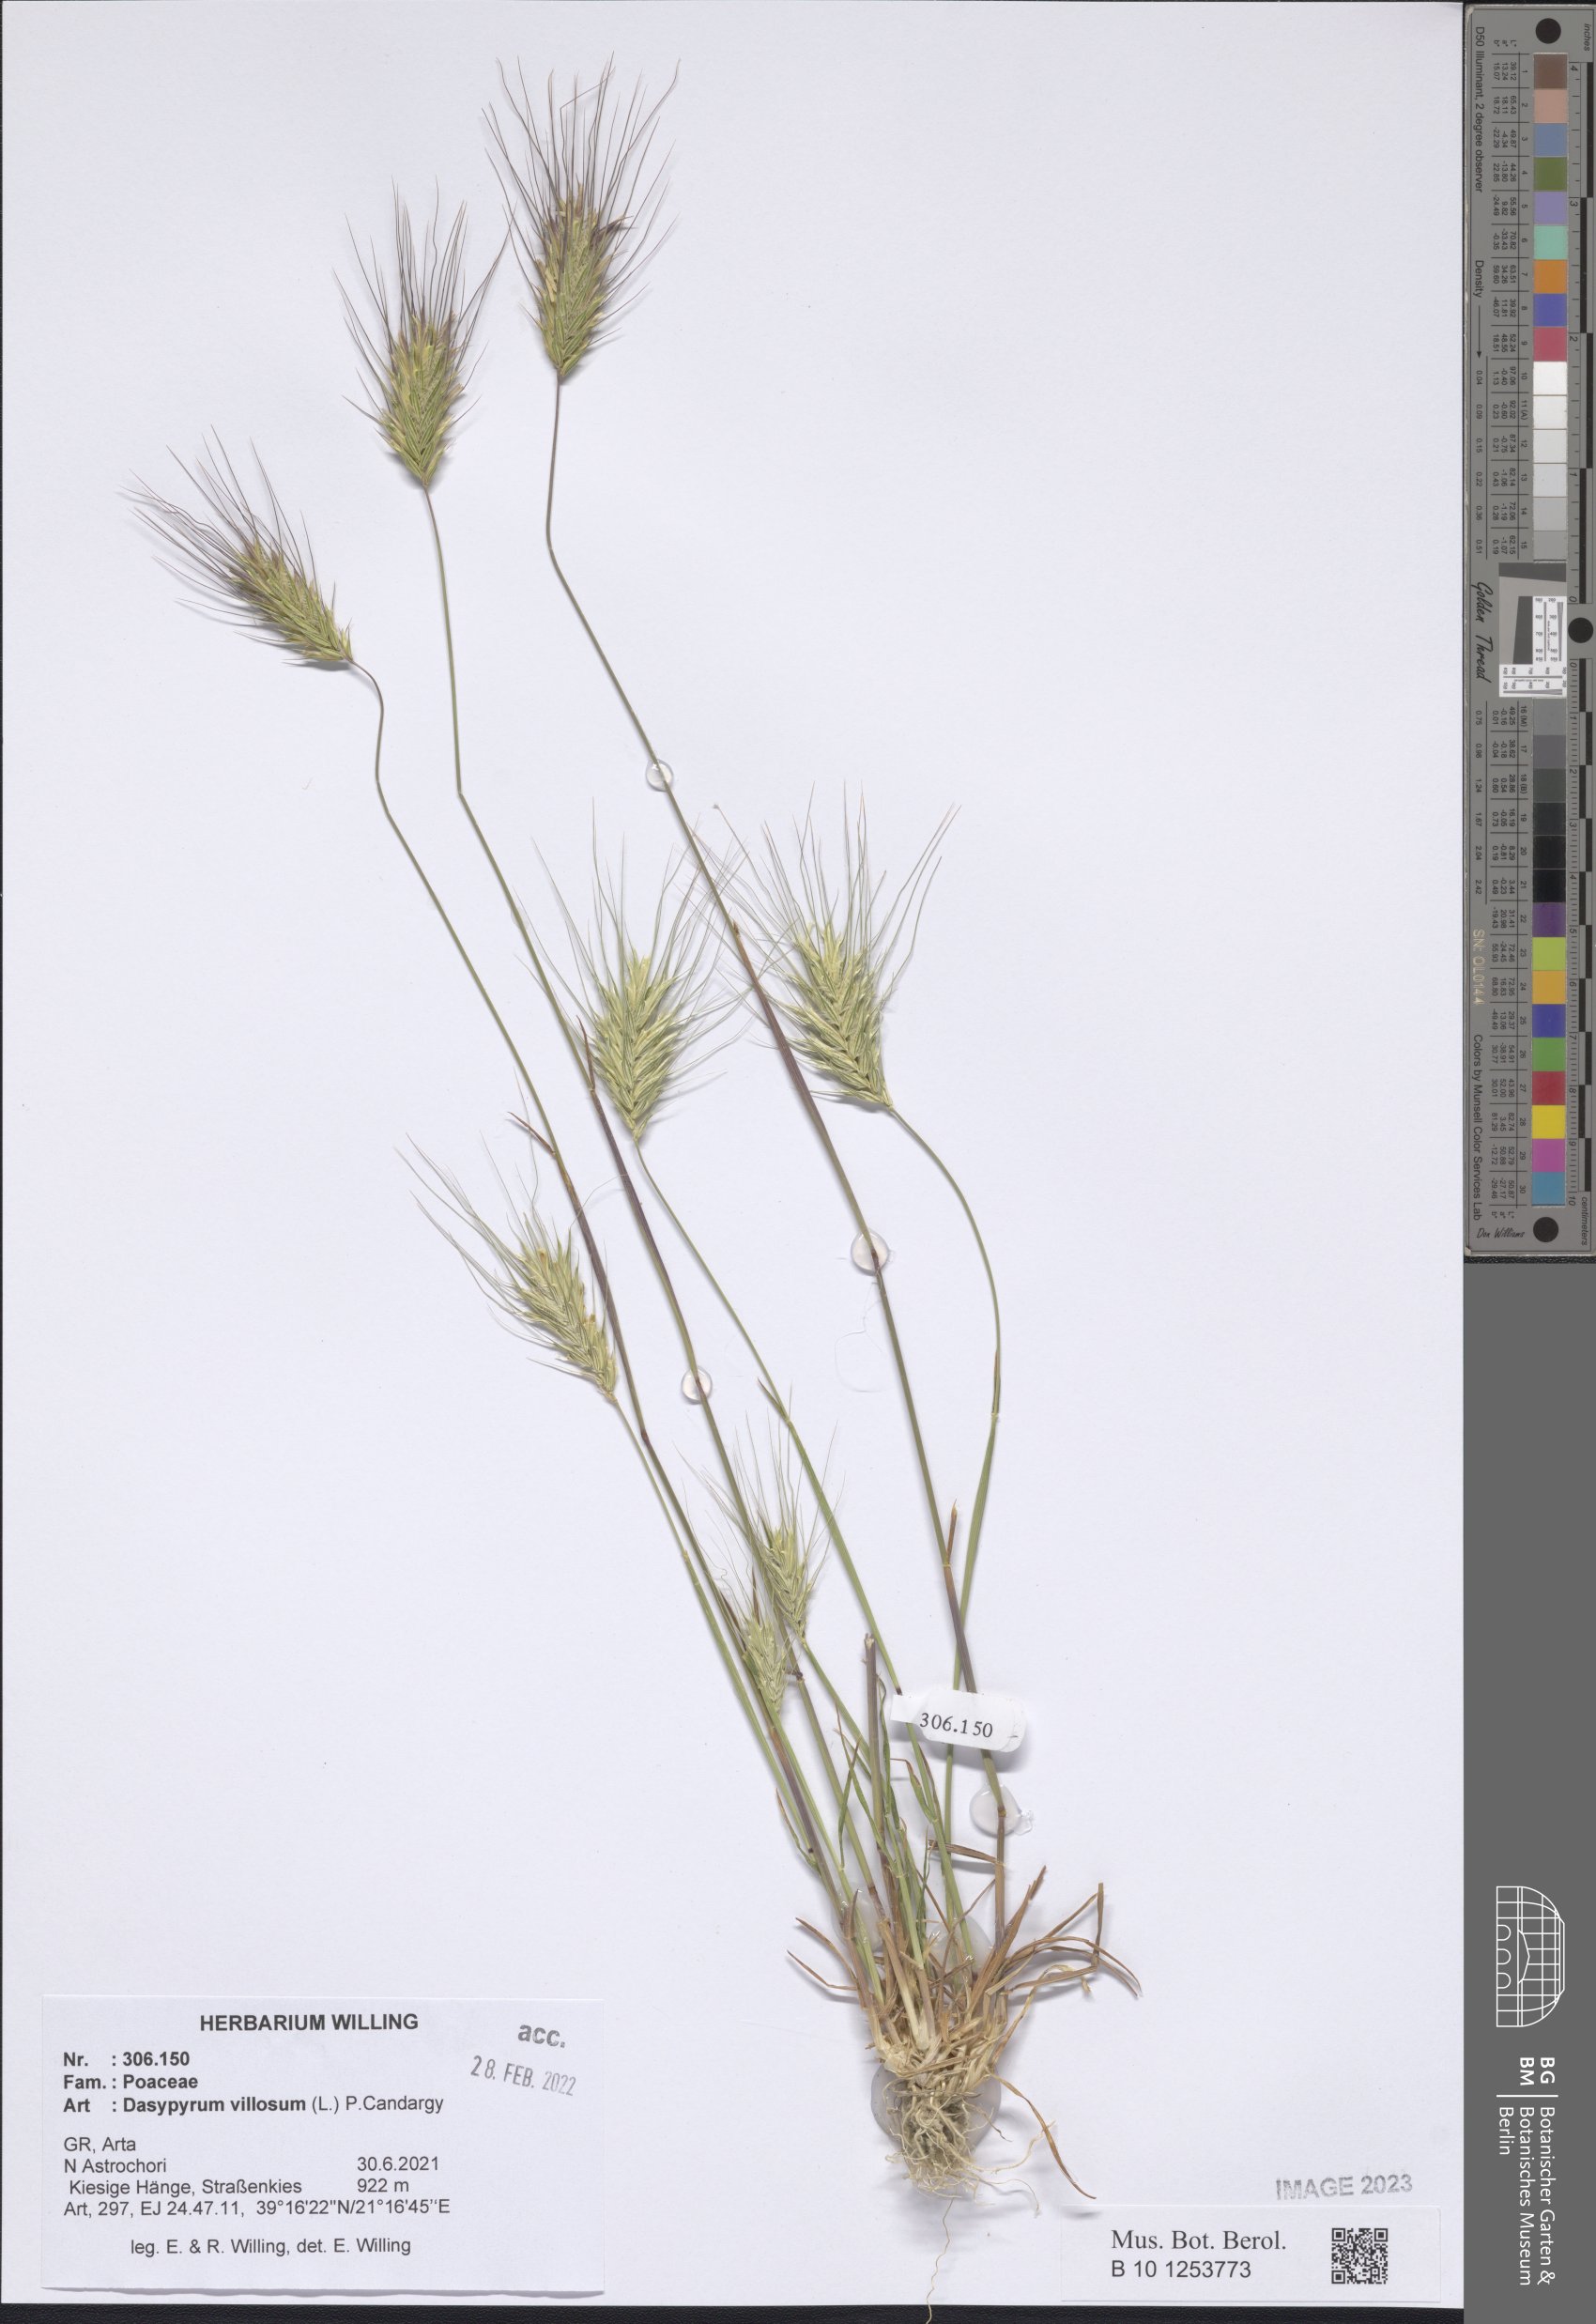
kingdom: Plantae
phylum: Tracheophyta
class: Liliopsida
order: Poales
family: Poaceae
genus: Dasypyrum
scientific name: Dasypyrum villosum
